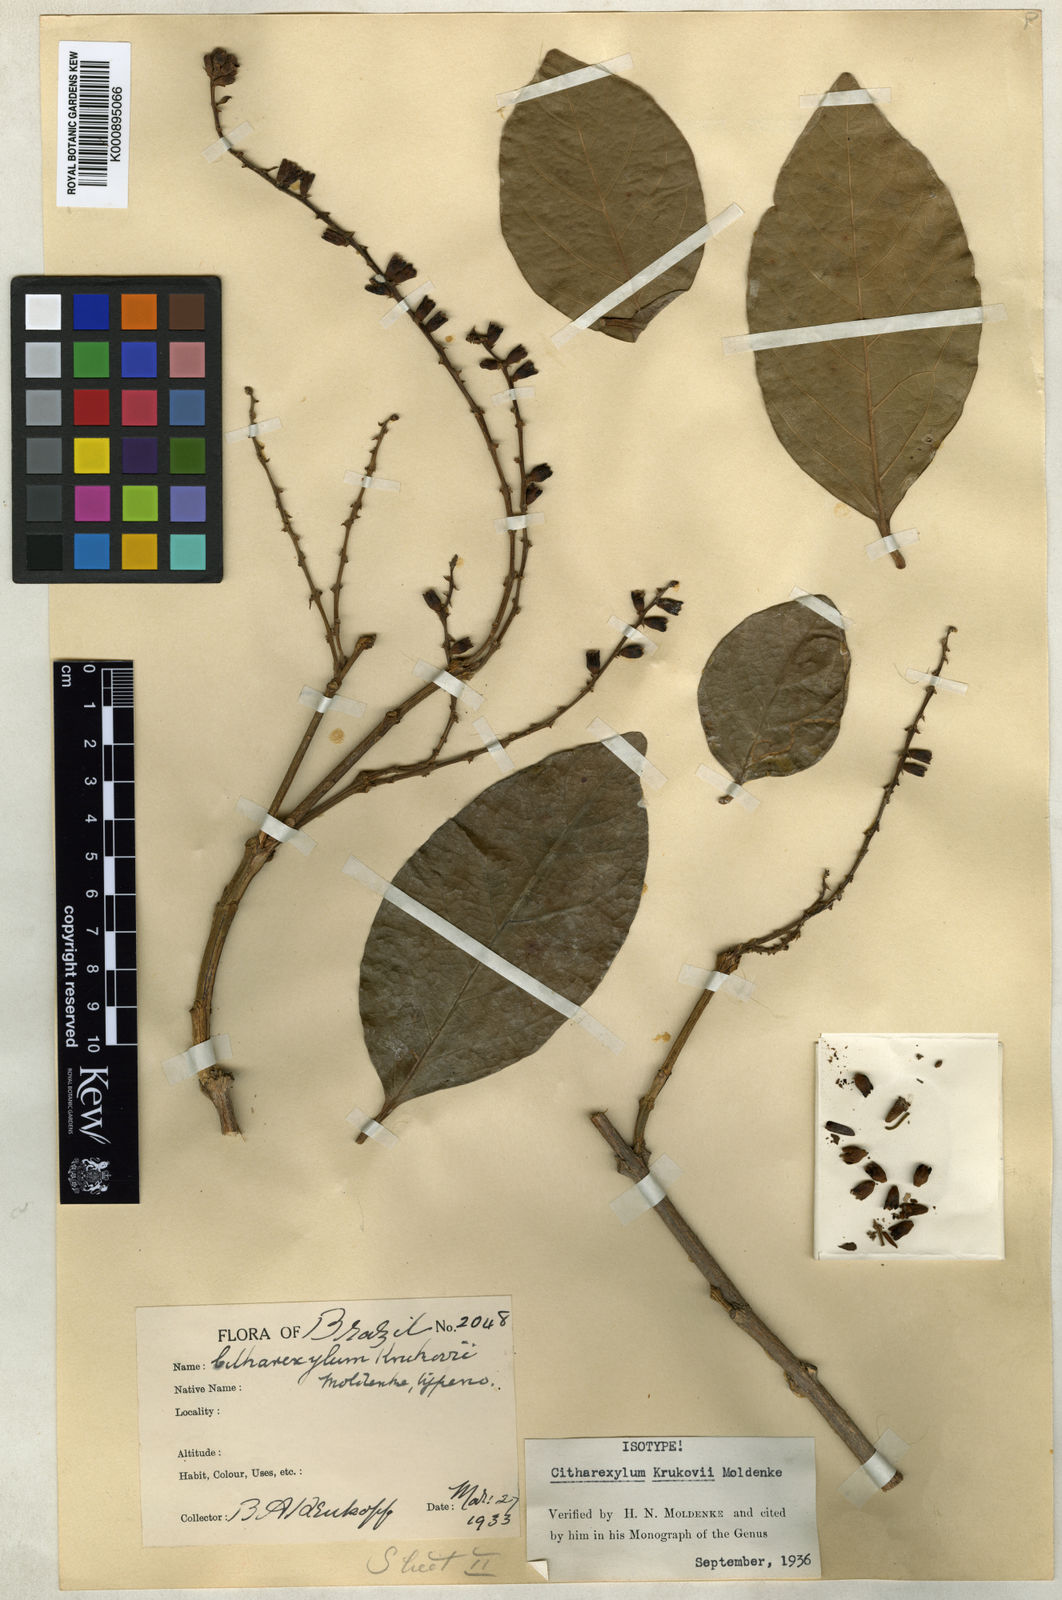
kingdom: Plantae
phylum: Tracheophyta
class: Magnoliopsida
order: Lamiales
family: Verbenaceae
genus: Citharexylum
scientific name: Citharexylum poeppigii
